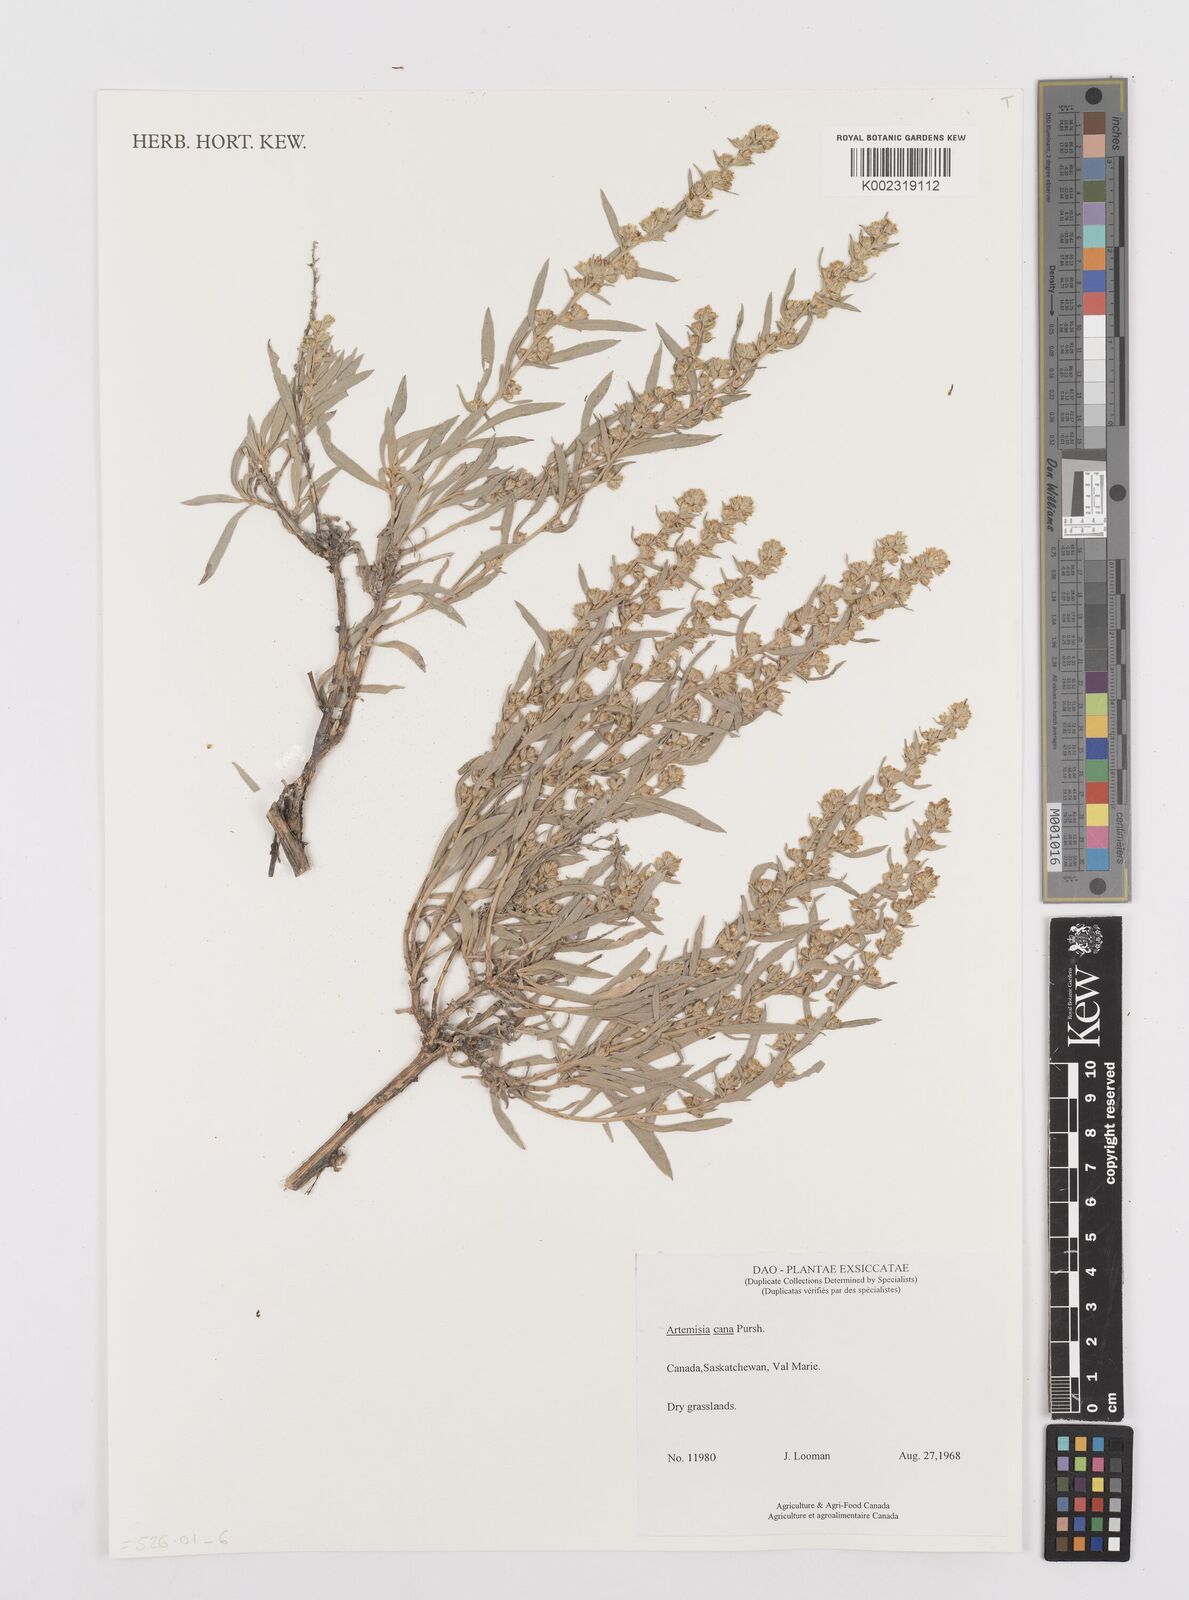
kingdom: Plantae
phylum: Tracheophyta
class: Magnoliopsida
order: Asterales
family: Asteraceae
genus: Artemisia
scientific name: Artemisia cana
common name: Silver sagebrush
